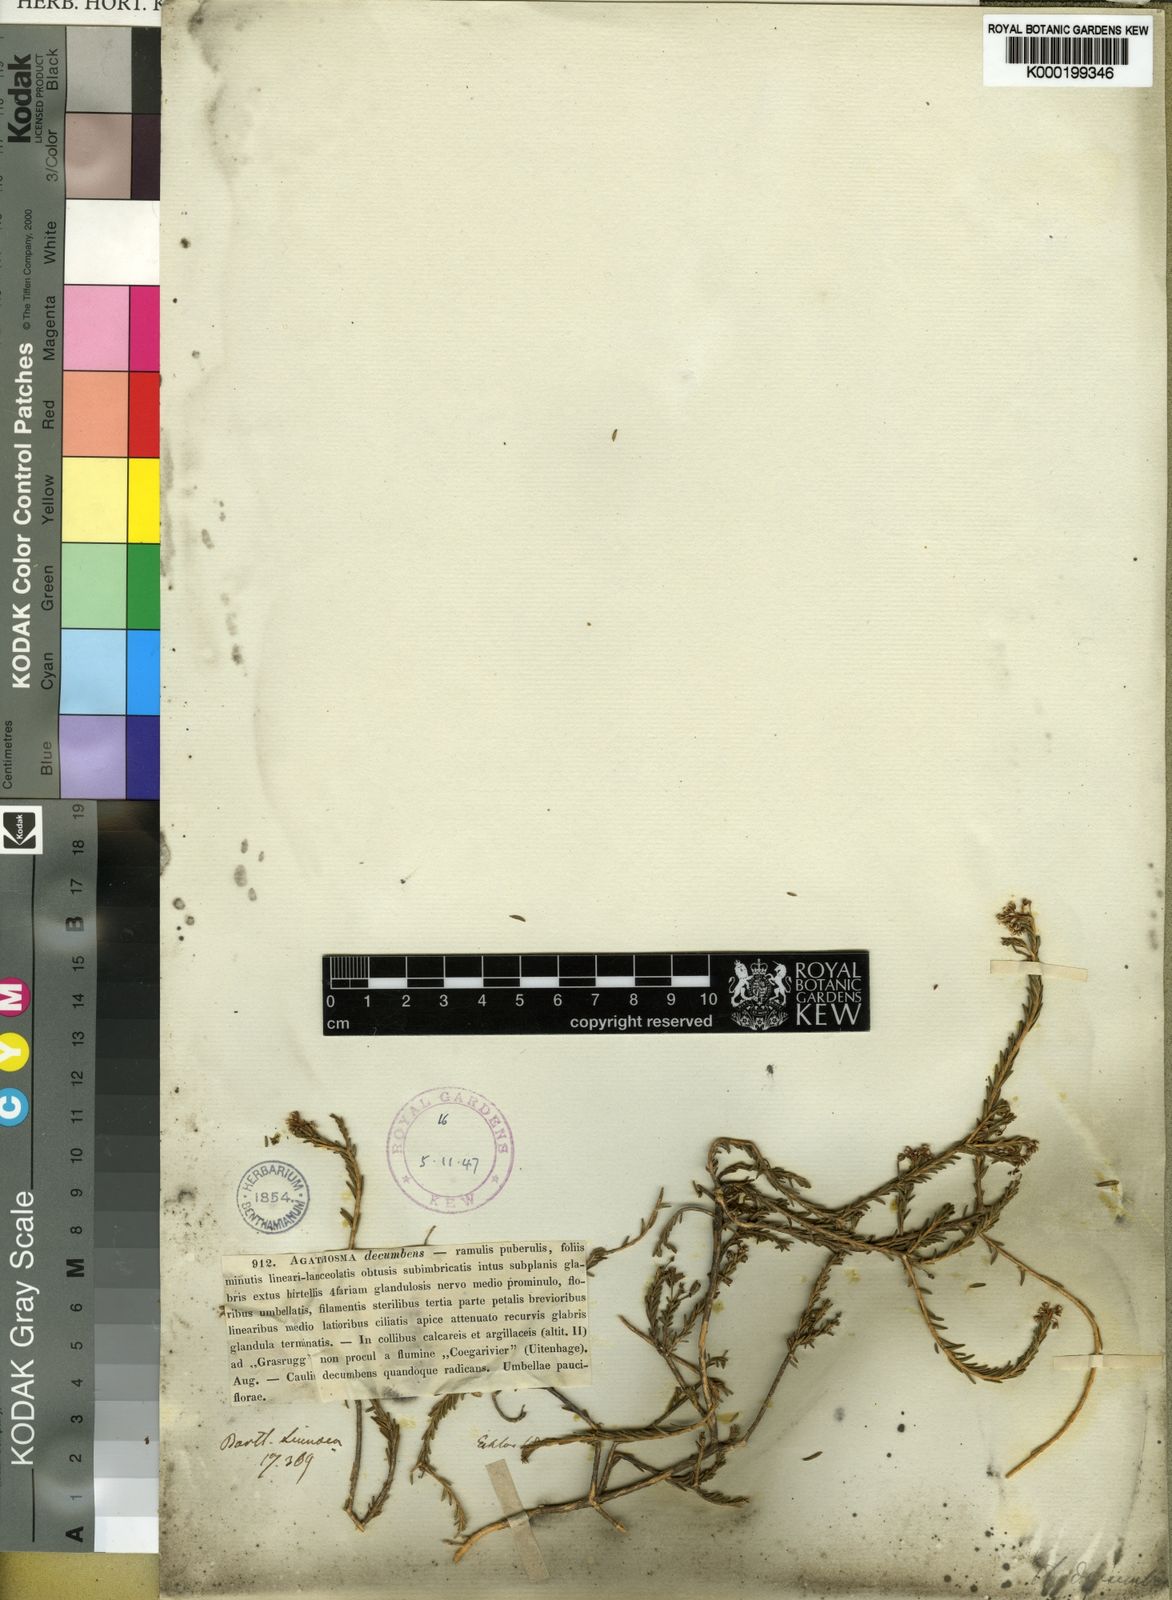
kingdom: Plantae
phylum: Tracheophyta
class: Magnoliopsida
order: Sapindales
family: Rutaceae
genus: Agathosma
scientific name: Agathosma capensis
